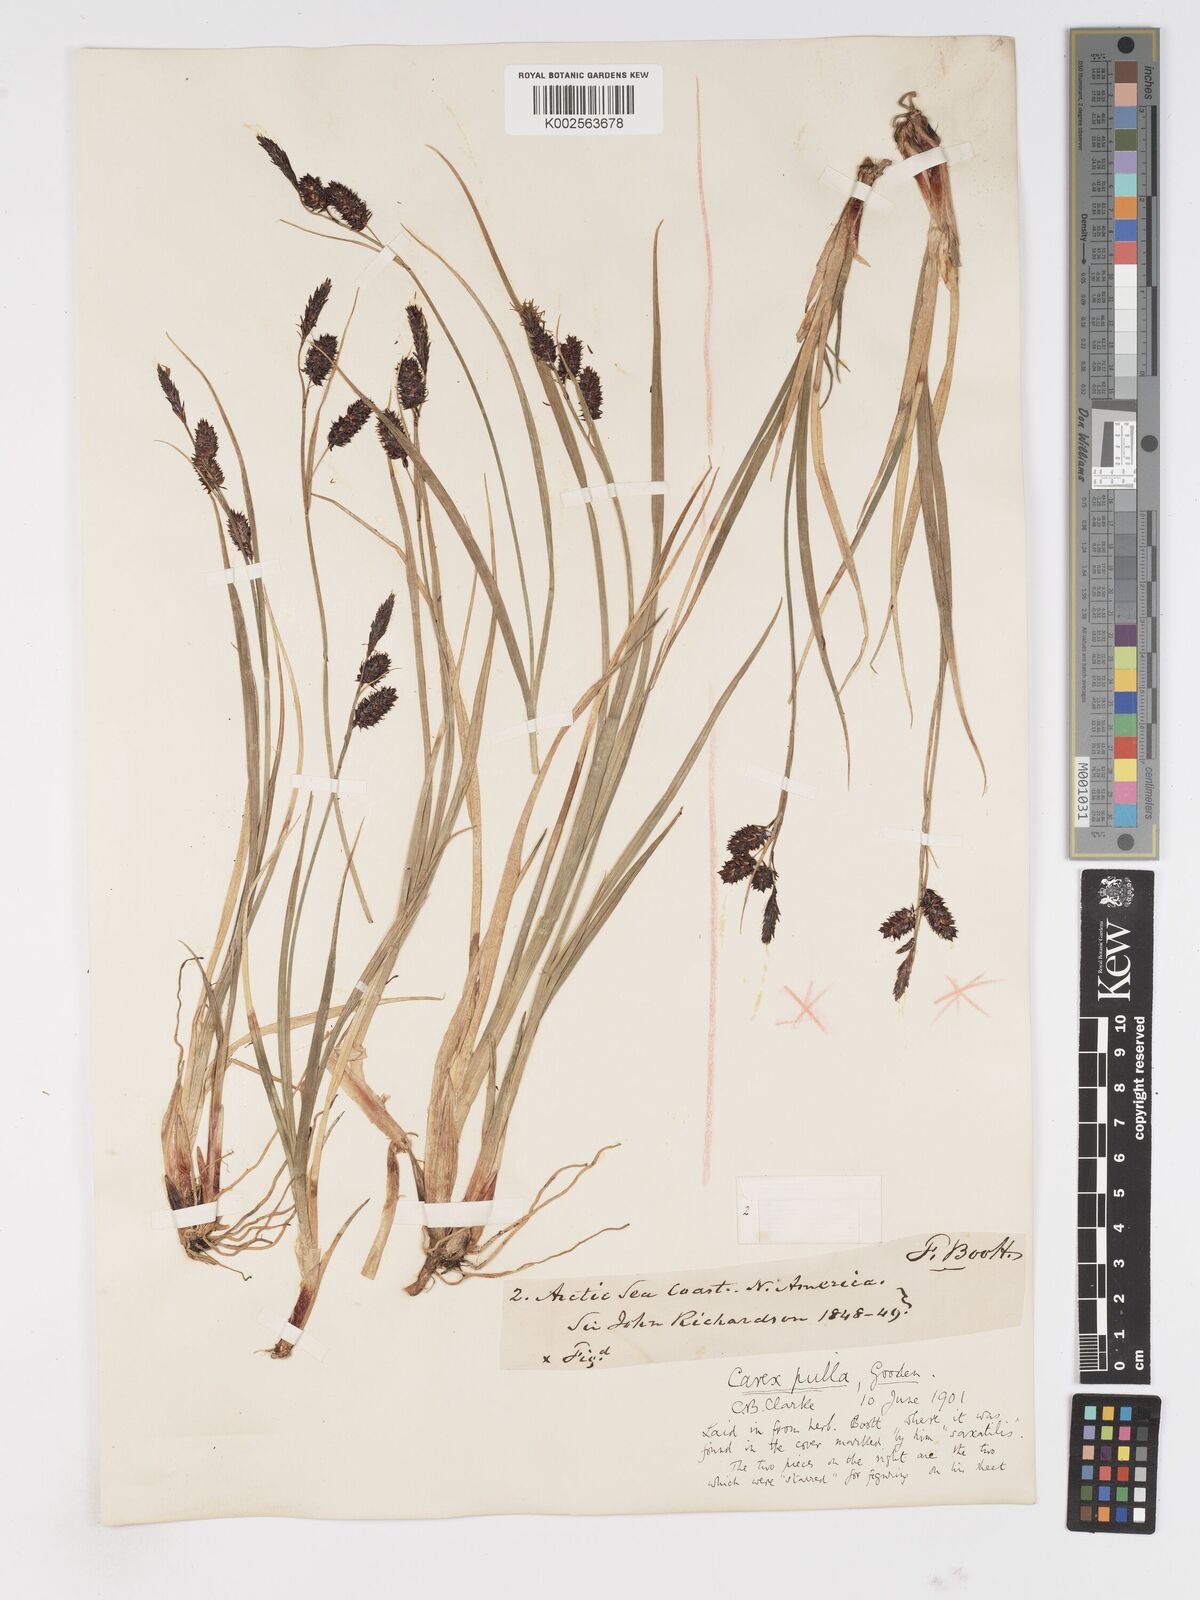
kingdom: Plantae
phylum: Tracheophyta
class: Liliopsida
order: Poales
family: Cyperaceae
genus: Carex
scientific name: Carex saxatilis
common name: Russet sedge
